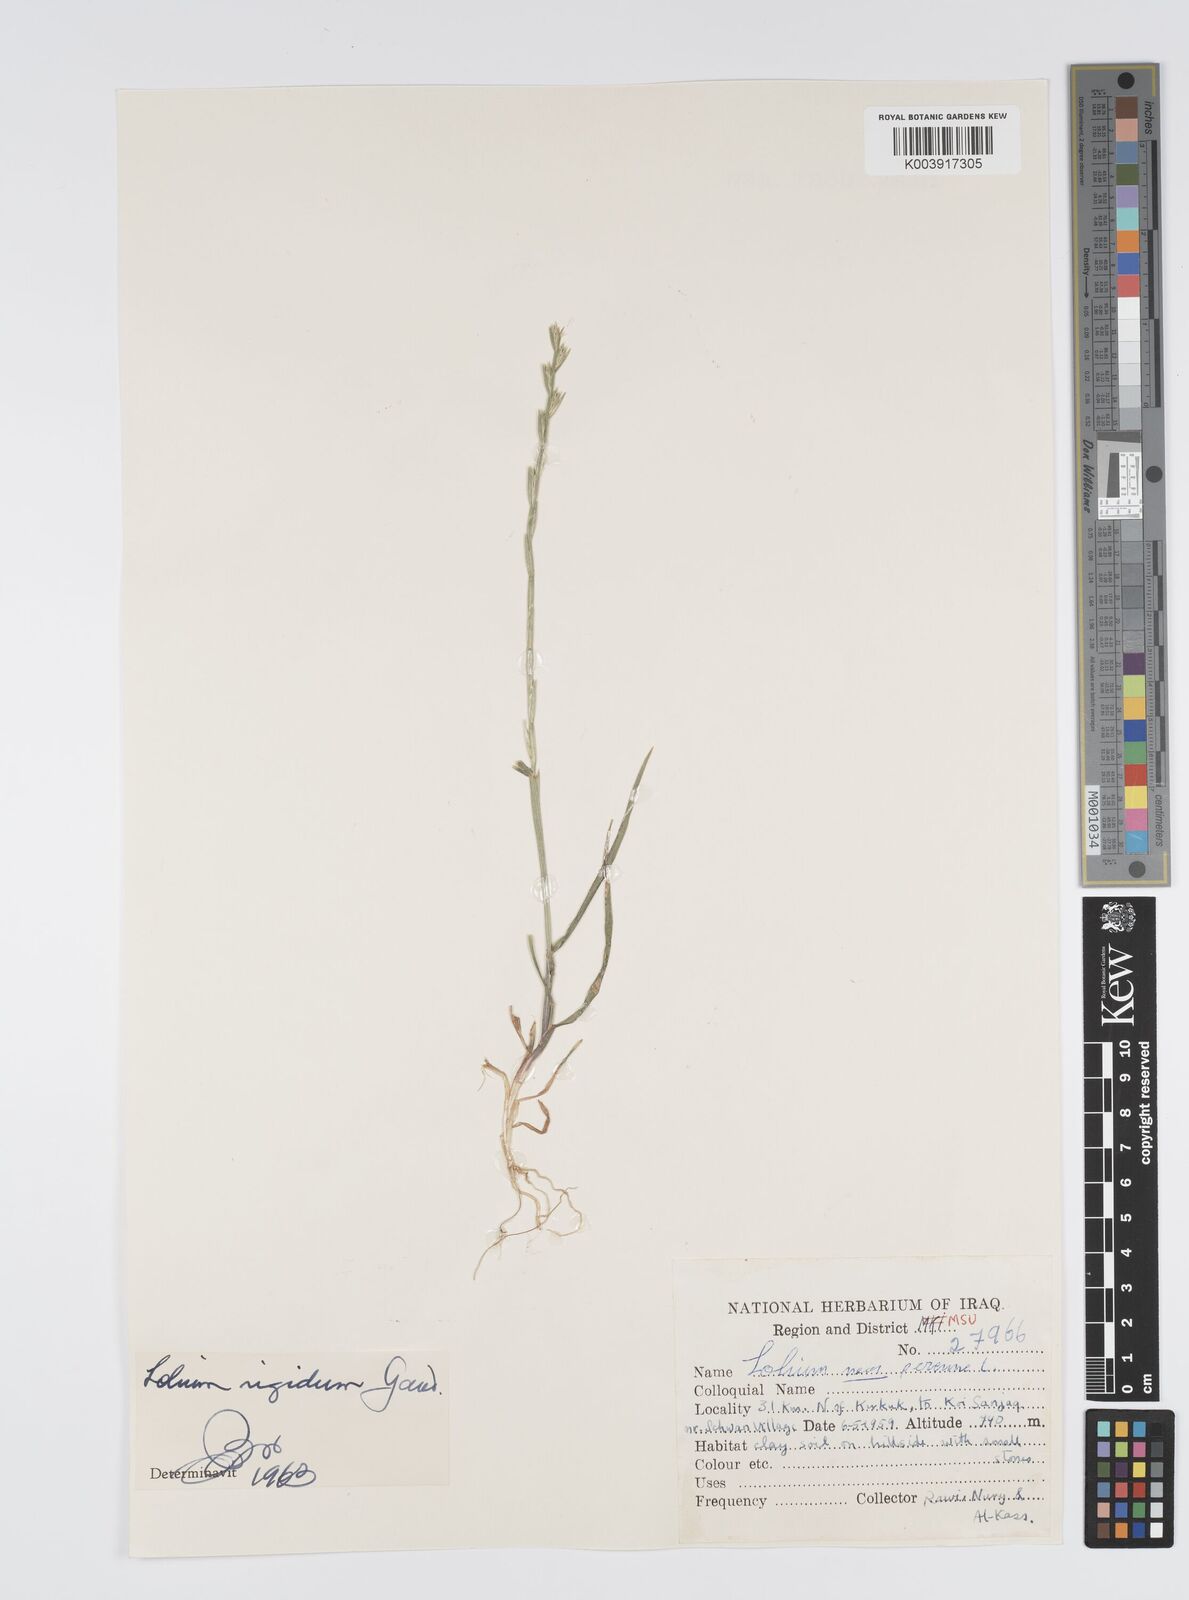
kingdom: Plantae
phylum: Tracheophyta
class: Liliopsida
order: Poales
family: Poaceae
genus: Lolium
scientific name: Lolium rigidum
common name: Wimmera ryegrass
